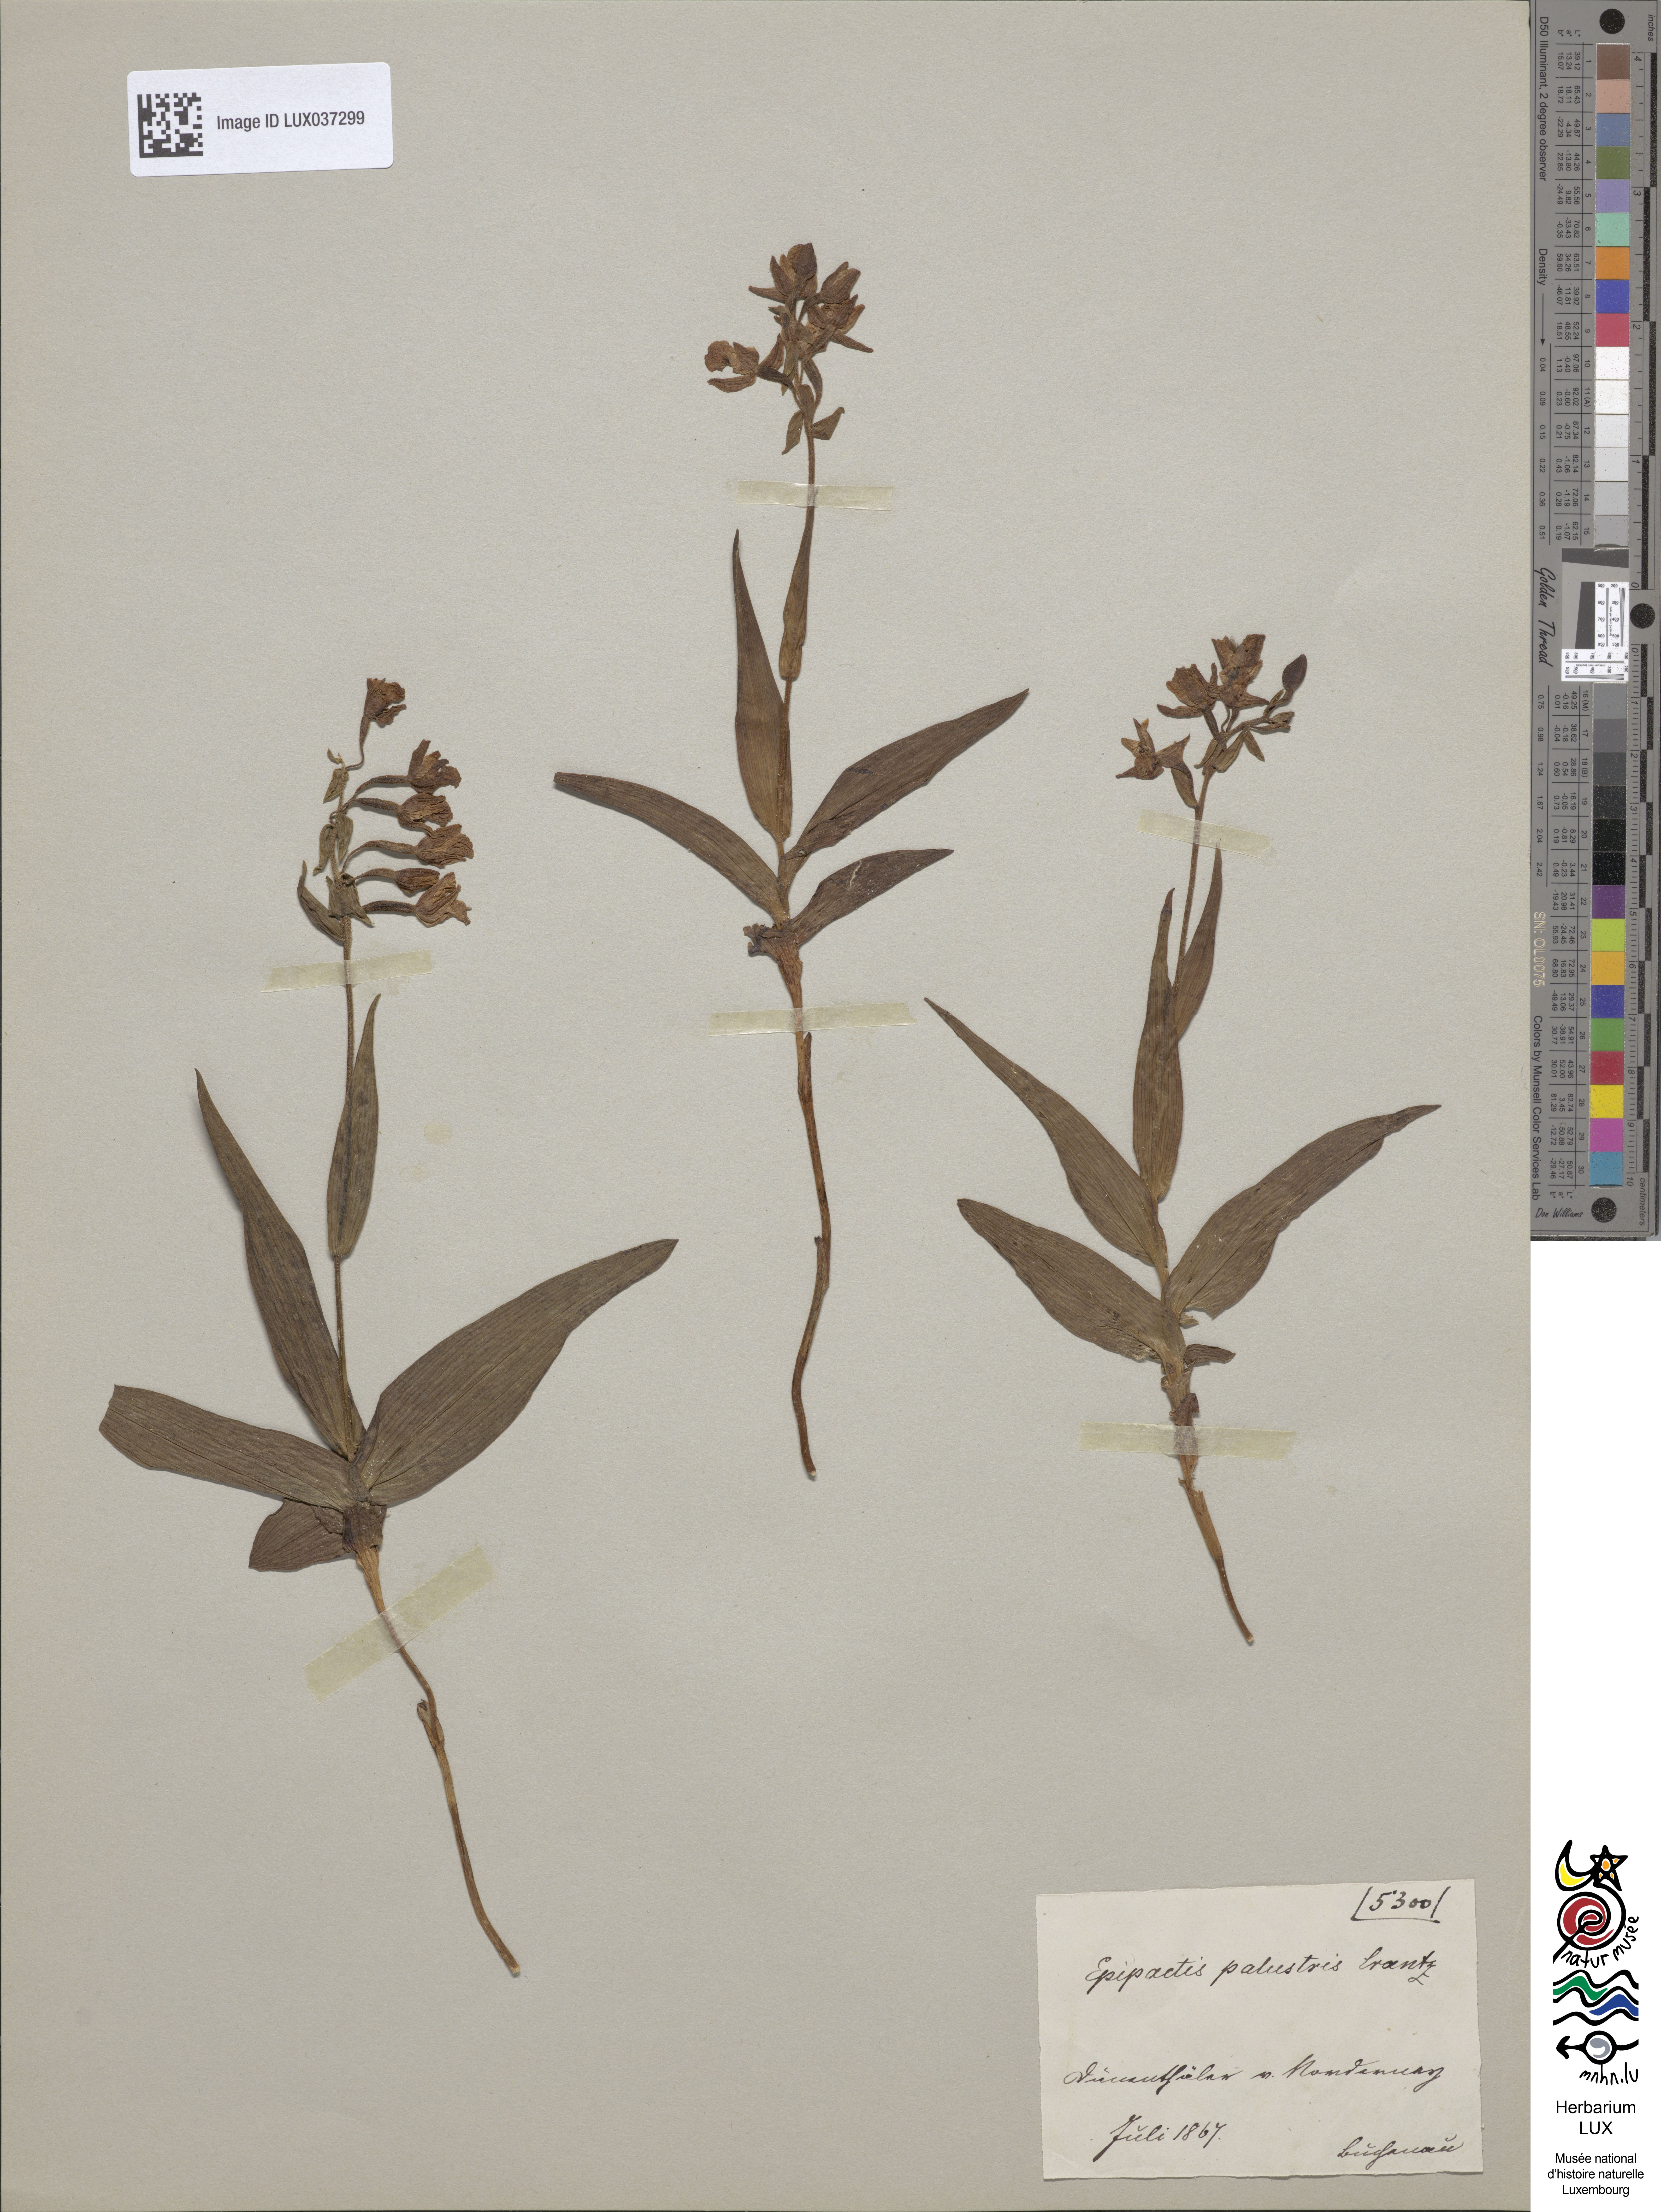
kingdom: Plantae
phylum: Tracheophyta
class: Liliopsida
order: Asparagales
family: Orchidaceae
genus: Epipactis
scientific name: Epipactis palustris
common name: Marsh helleborine
